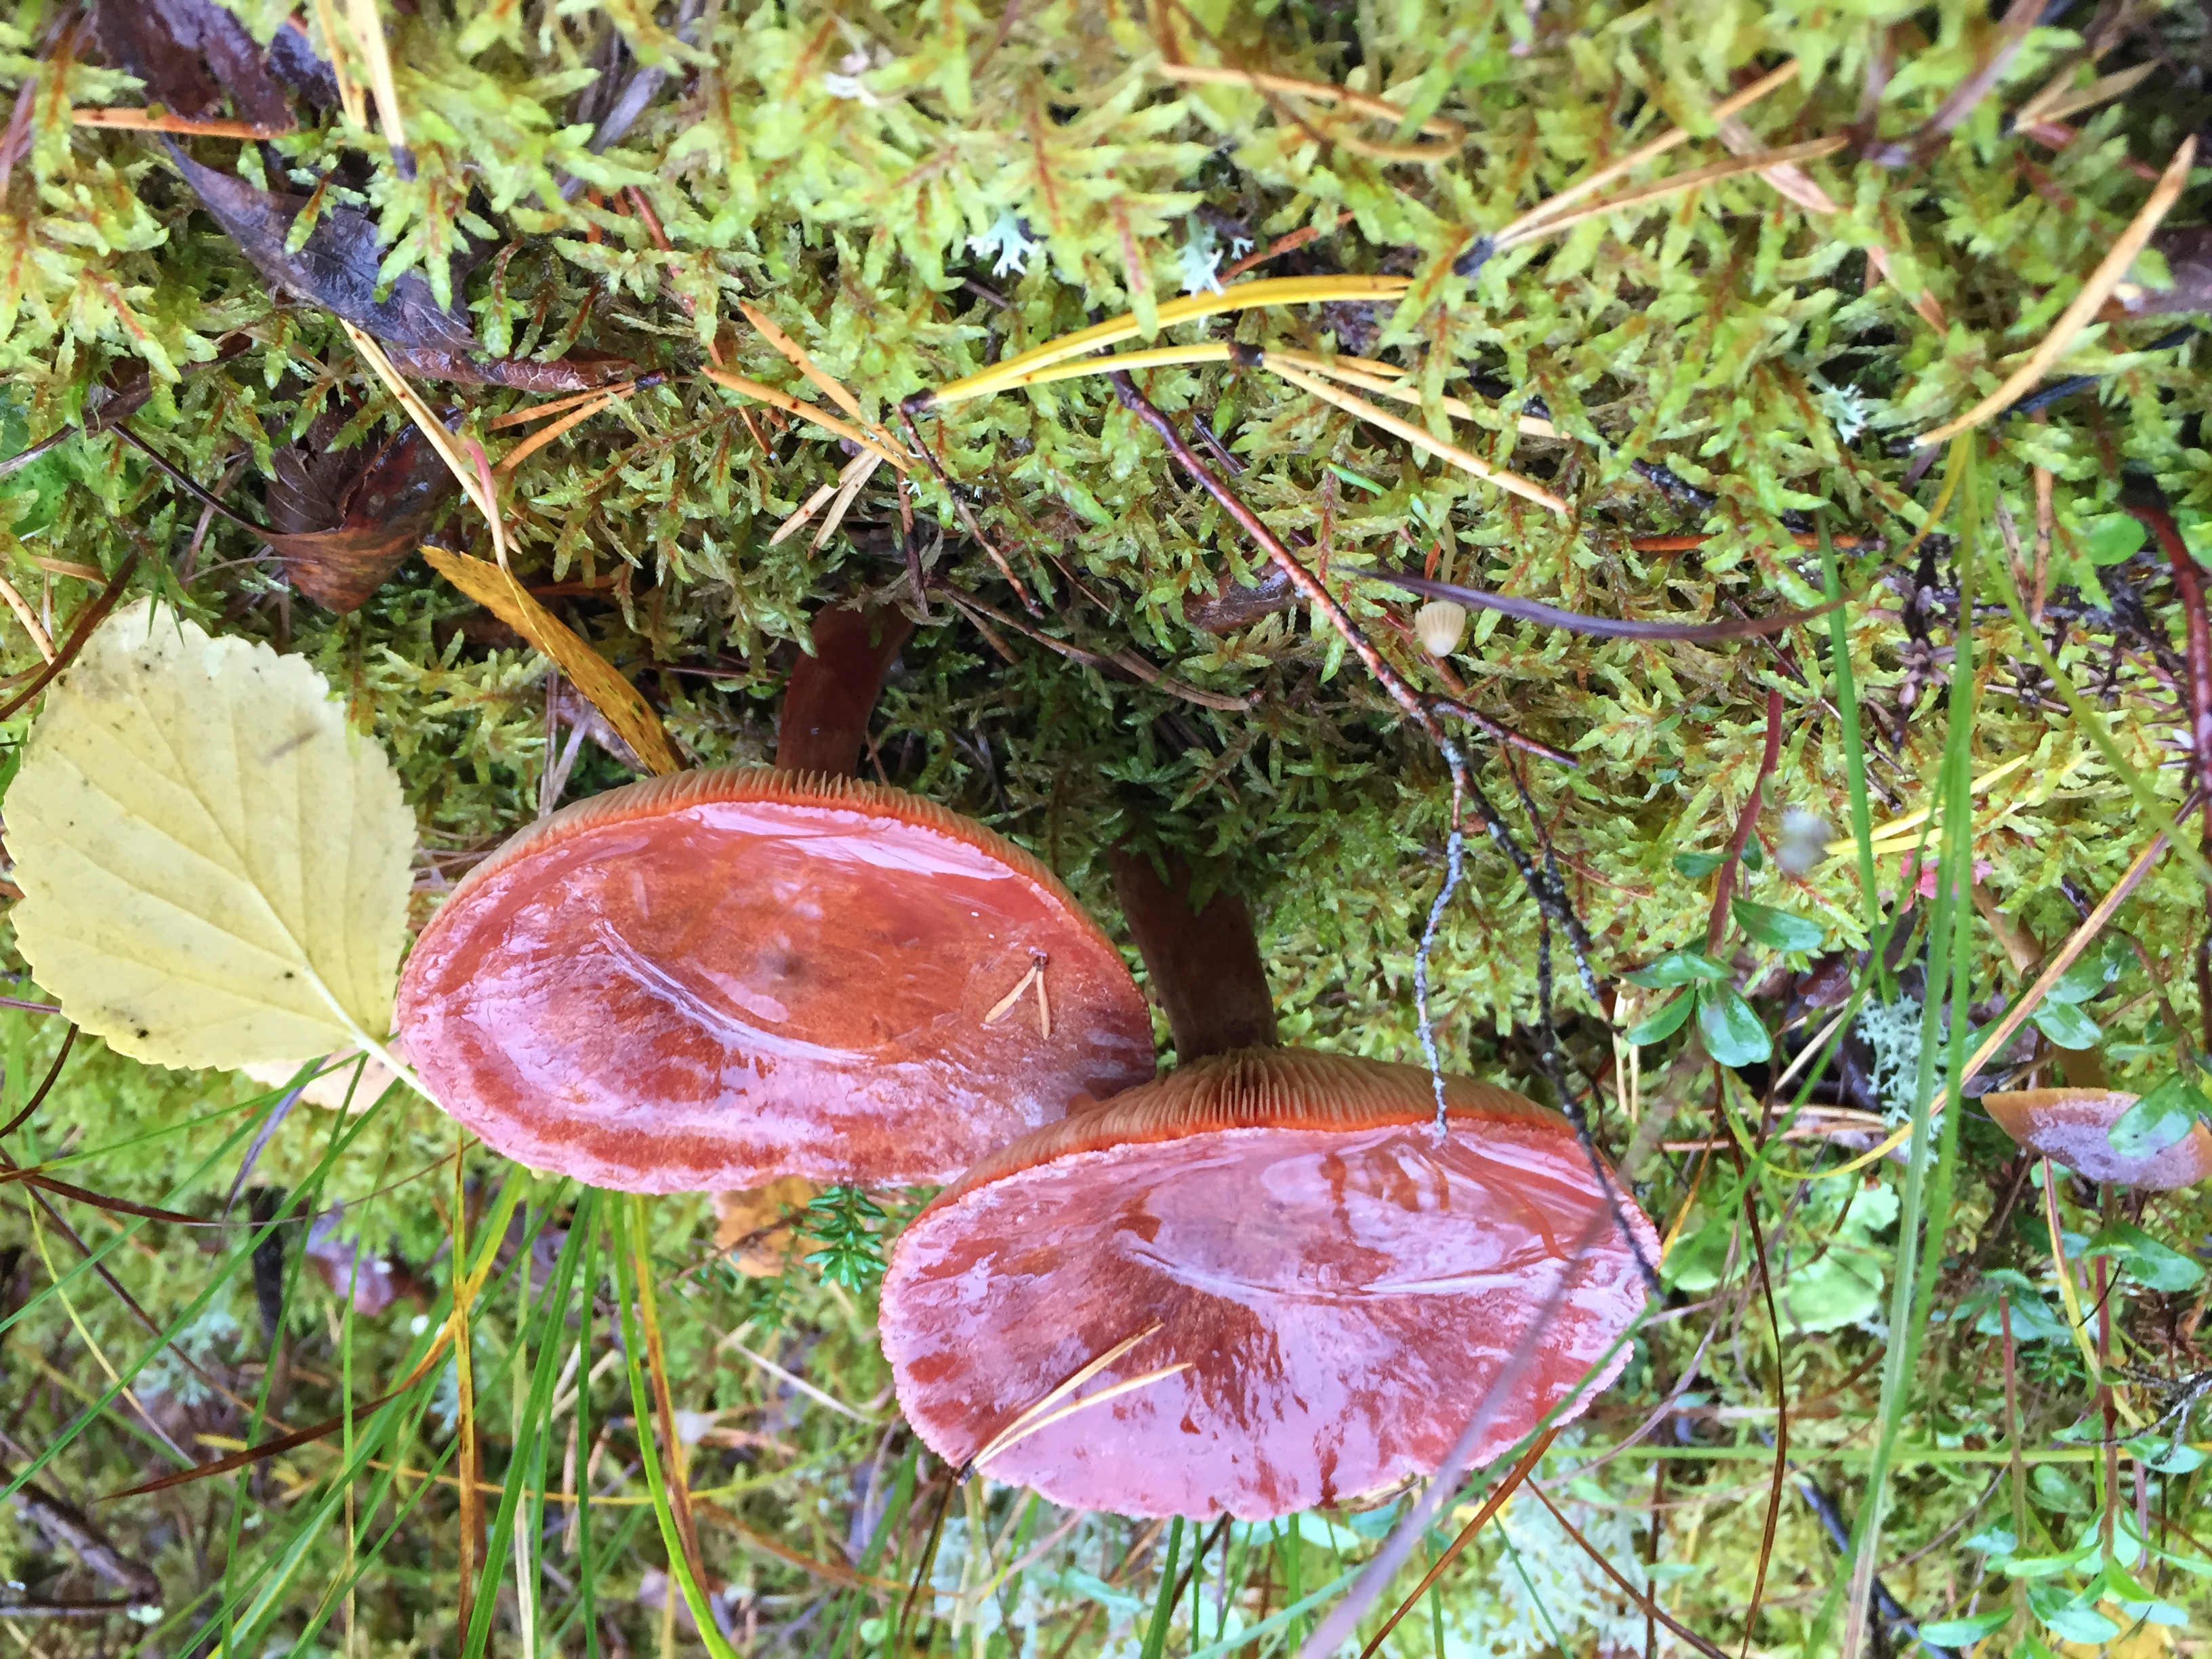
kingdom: Fungi
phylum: Basidiomycota
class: Agaricomycetes
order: Russulales
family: Russulaceae
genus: Lactarius
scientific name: Lactarius rufus
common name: Rufous milk-cap
